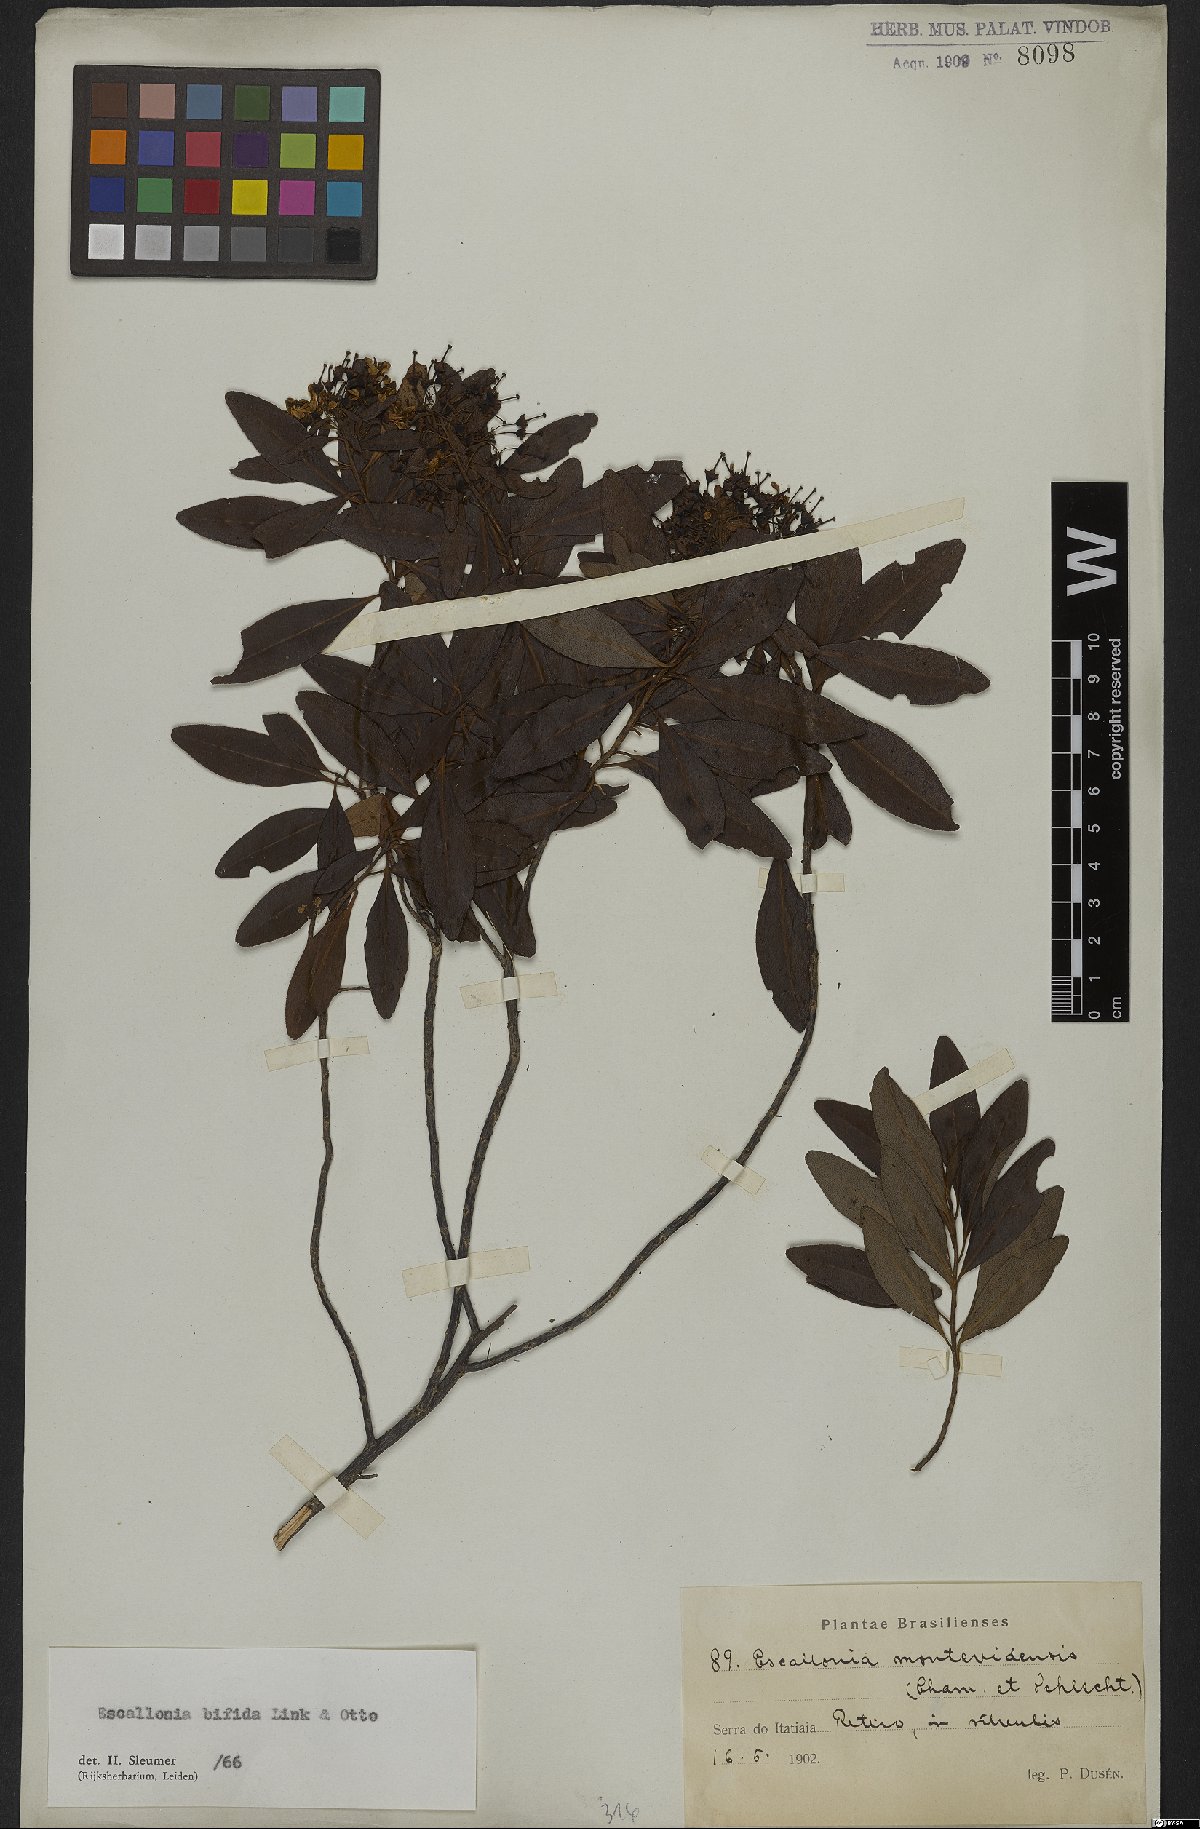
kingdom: Plantae
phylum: Tracheophyta
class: Magnoliopsida
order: Escalloniales
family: Escalloniaceae
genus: Escallonia
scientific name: Escallonia bifida
